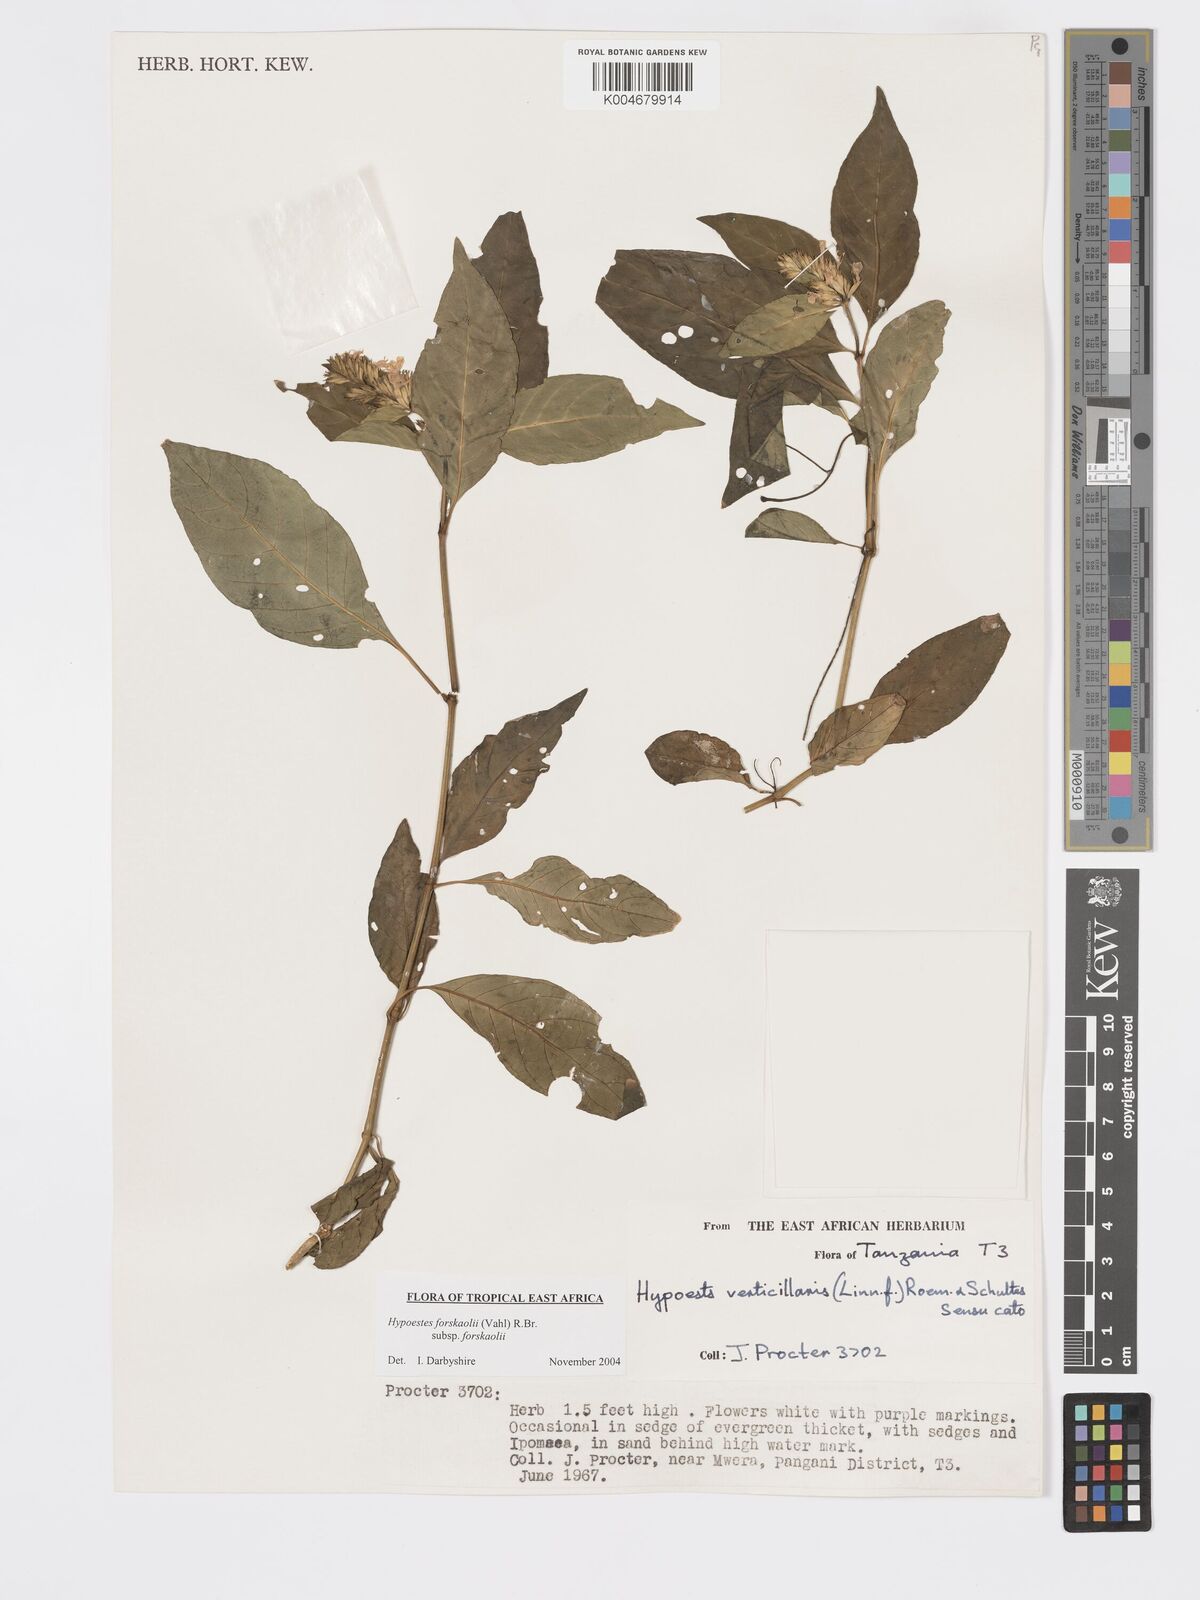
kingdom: Plantae
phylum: Tracheophyta
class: Magnoliopsida
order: Lamiales
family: Acanthaceae
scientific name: Acanthaceae
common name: Acanthaceae
